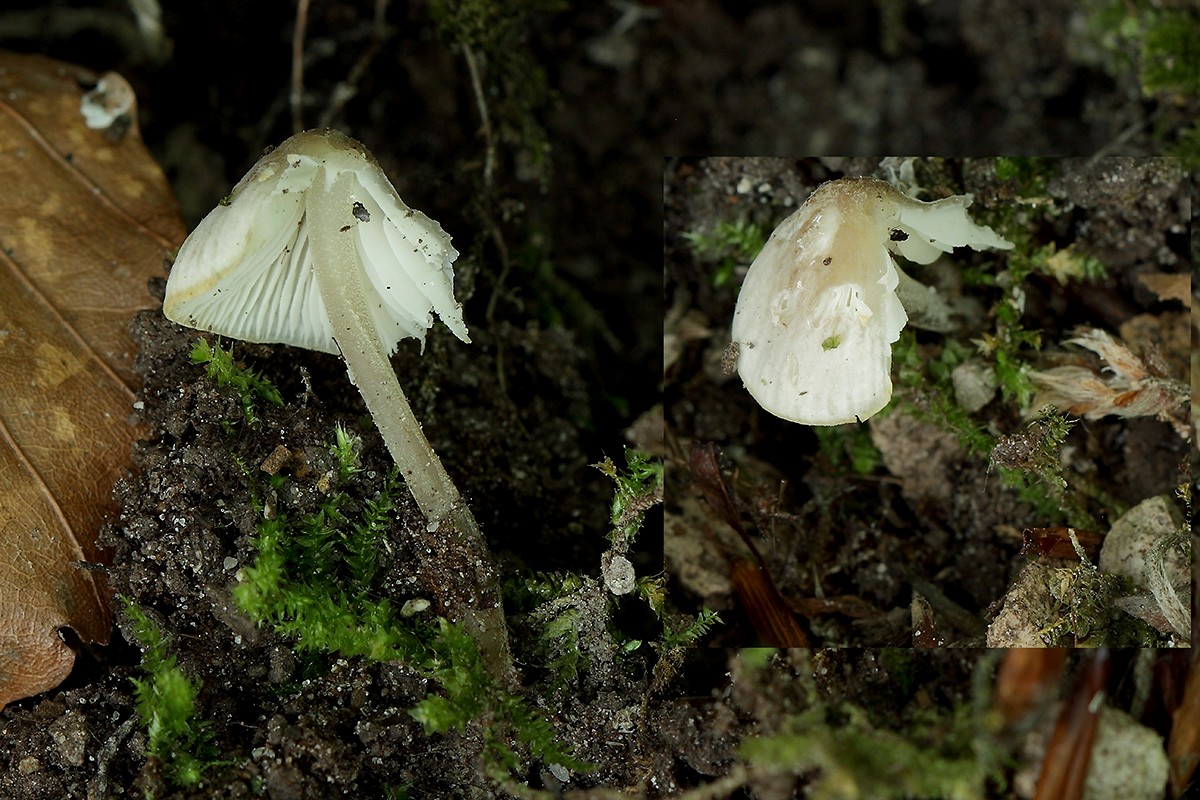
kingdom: Fungi
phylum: Basidiomycota
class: Agaricomycetes
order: Agaricales
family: Tricholomataceae
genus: Mycenella
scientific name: Mycenella trachyspora
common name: rødprikket dughat
